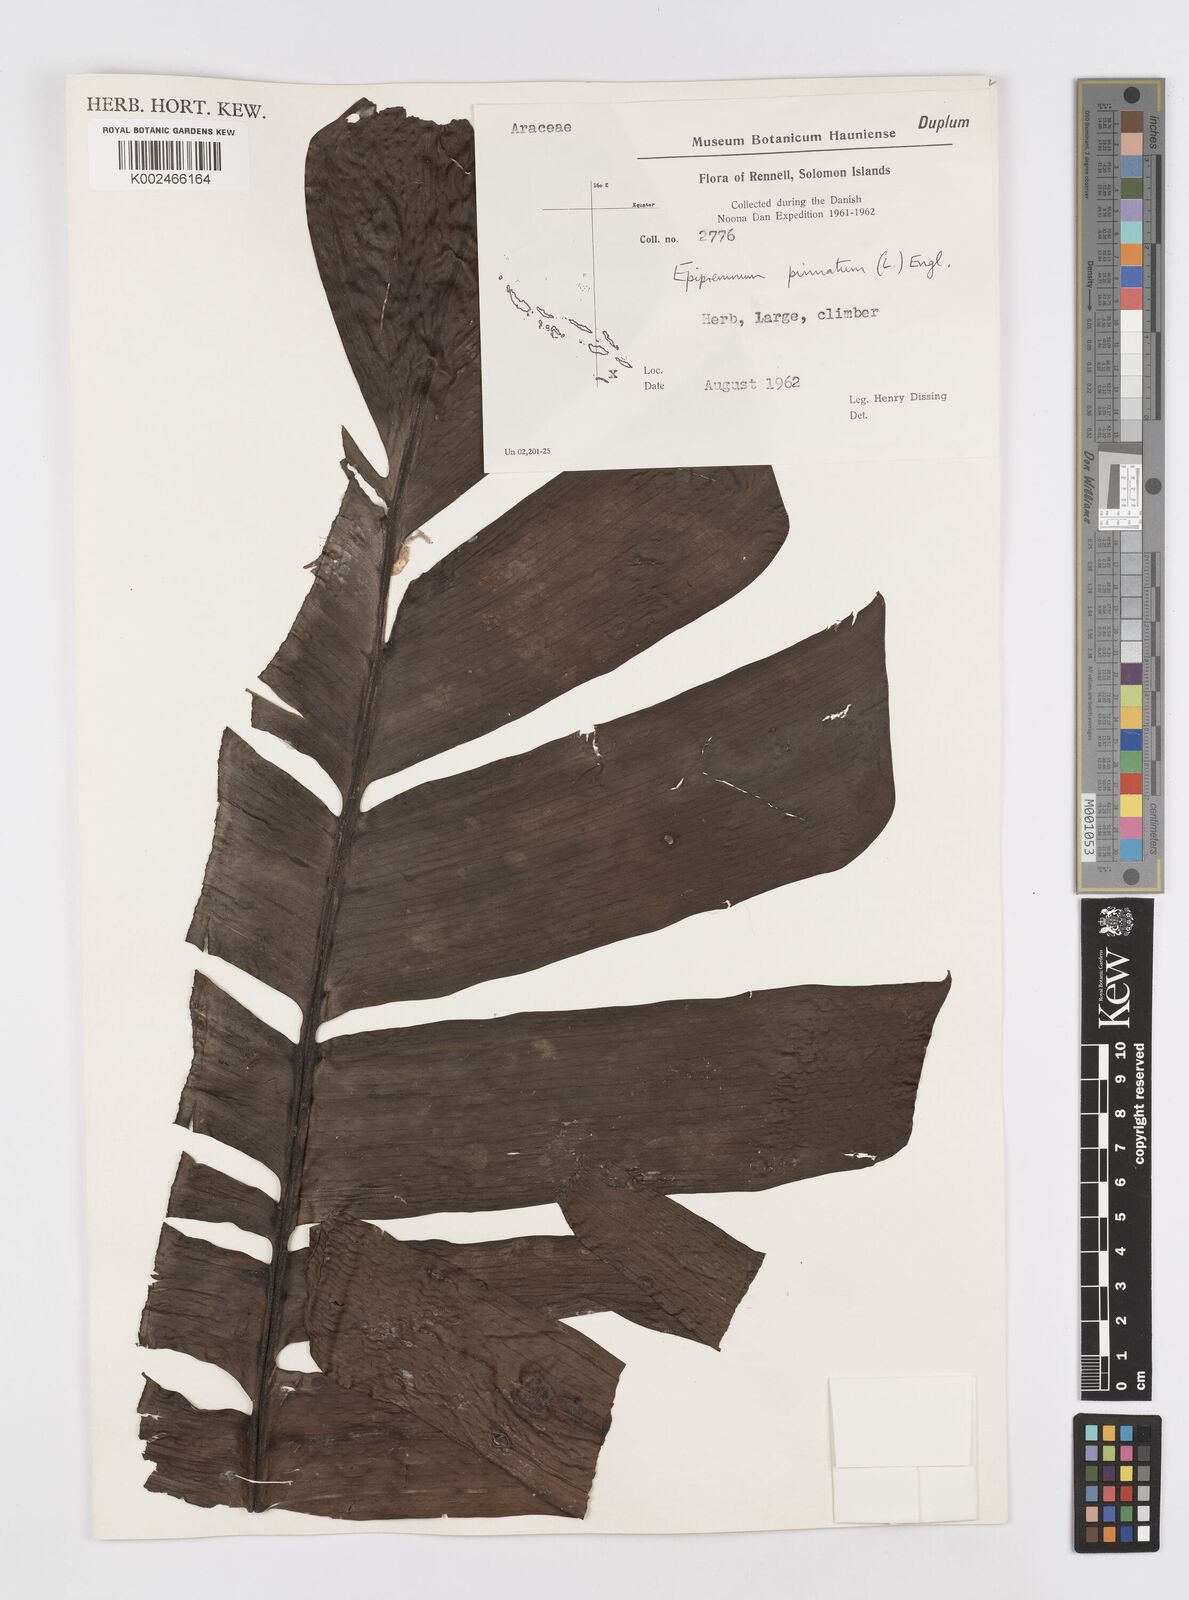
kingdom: Plantae
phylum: Tracheophyta
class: Liliopsida
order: Alismatales
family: Araceae
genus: Rhaphidophora
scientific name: Rhaphidophora korthalsii
